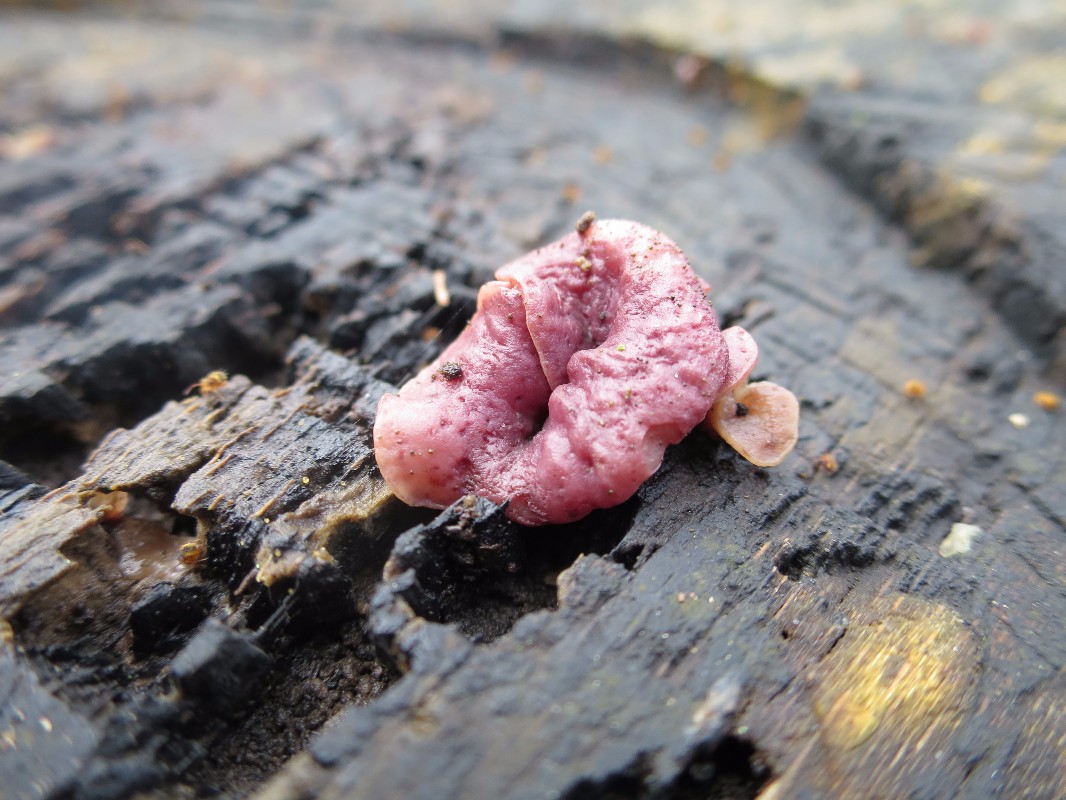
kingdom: Fungi
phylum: Ascomycota
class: Leotiomycetes
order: Helotiales
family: Gelatinodiscaceae
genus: Ascocoryne
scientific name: Ascocoryne cylichnium
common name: stor sejskive
